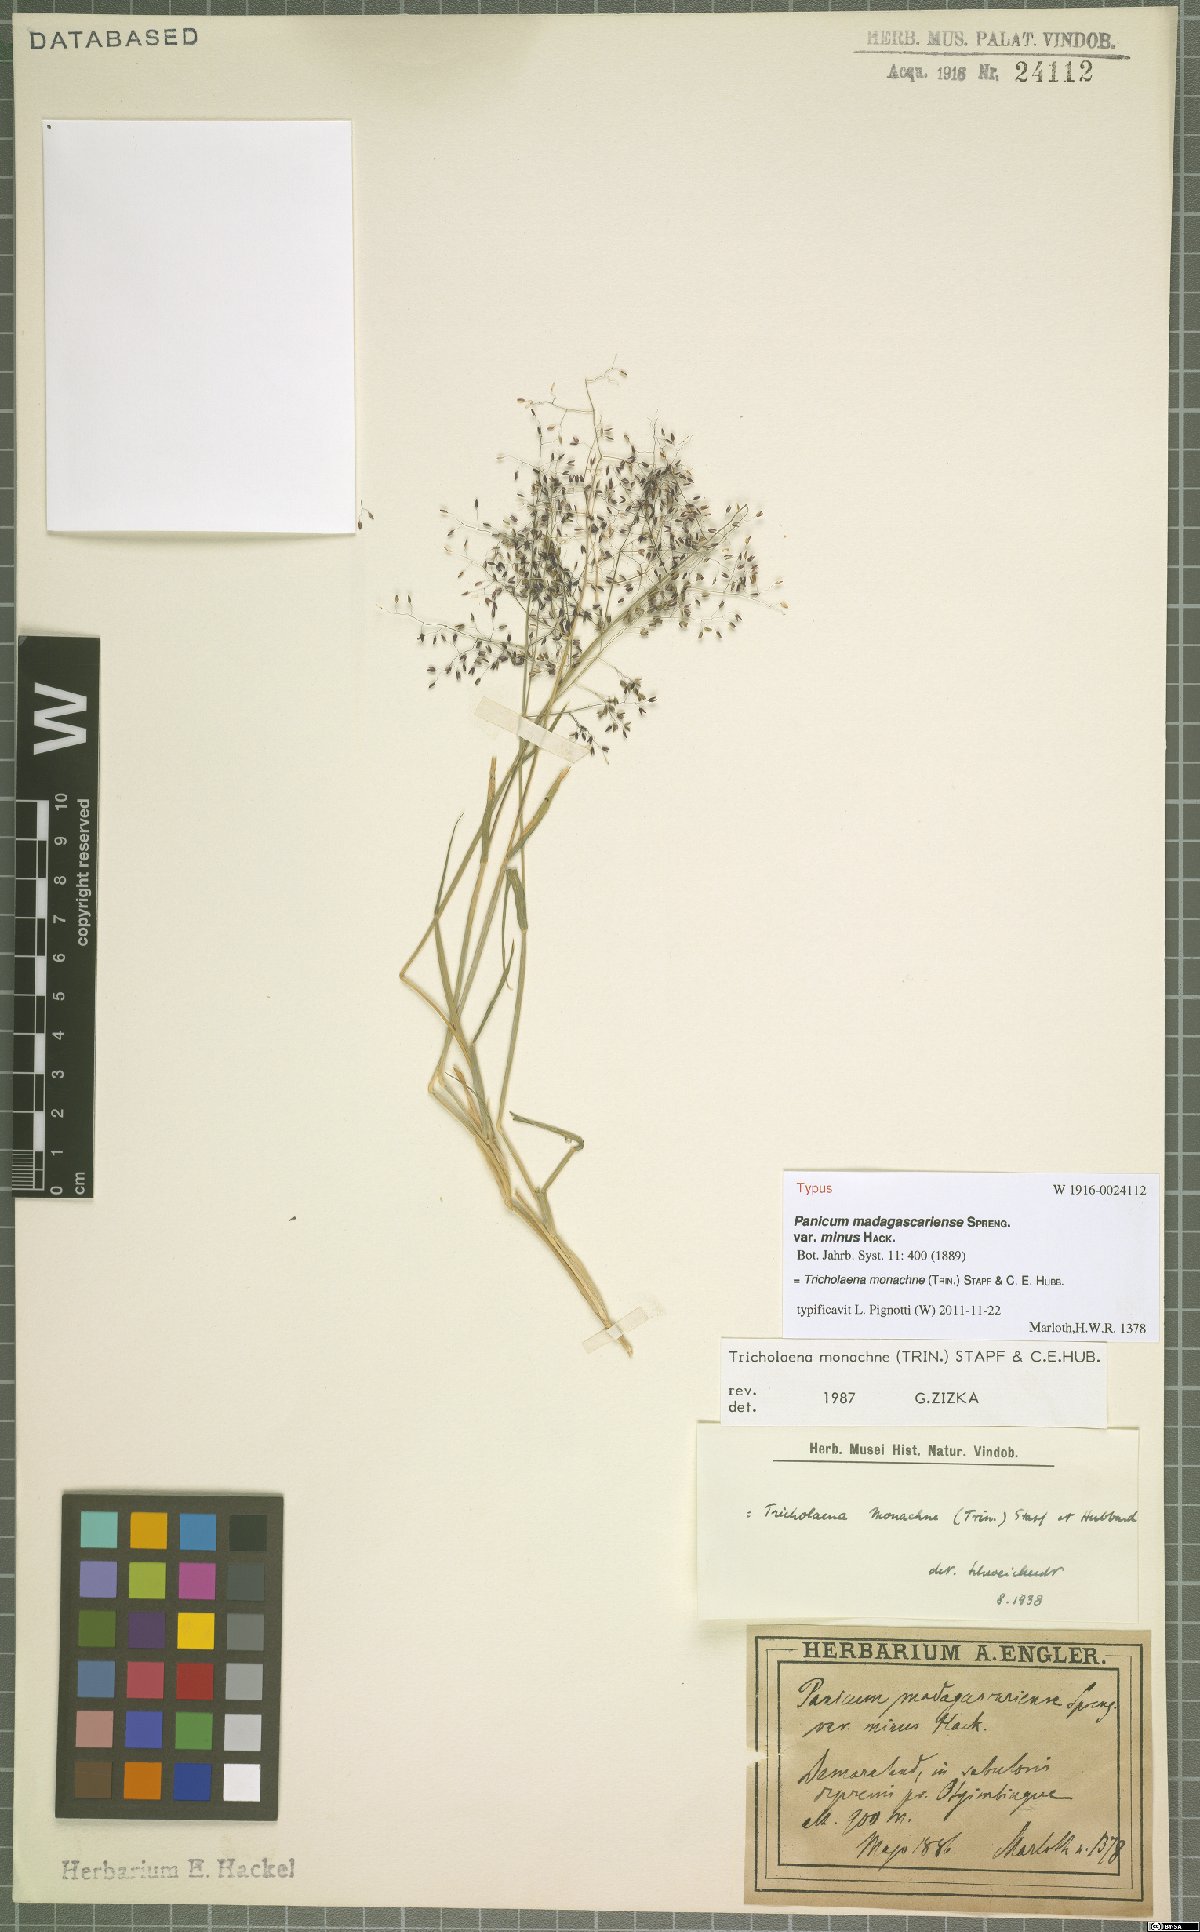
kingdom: Plantae
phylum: Tracheophyta
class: Liliopsida
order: Poales
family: Poaceae
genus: Tricholaena
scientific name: Tricholaena monachne
